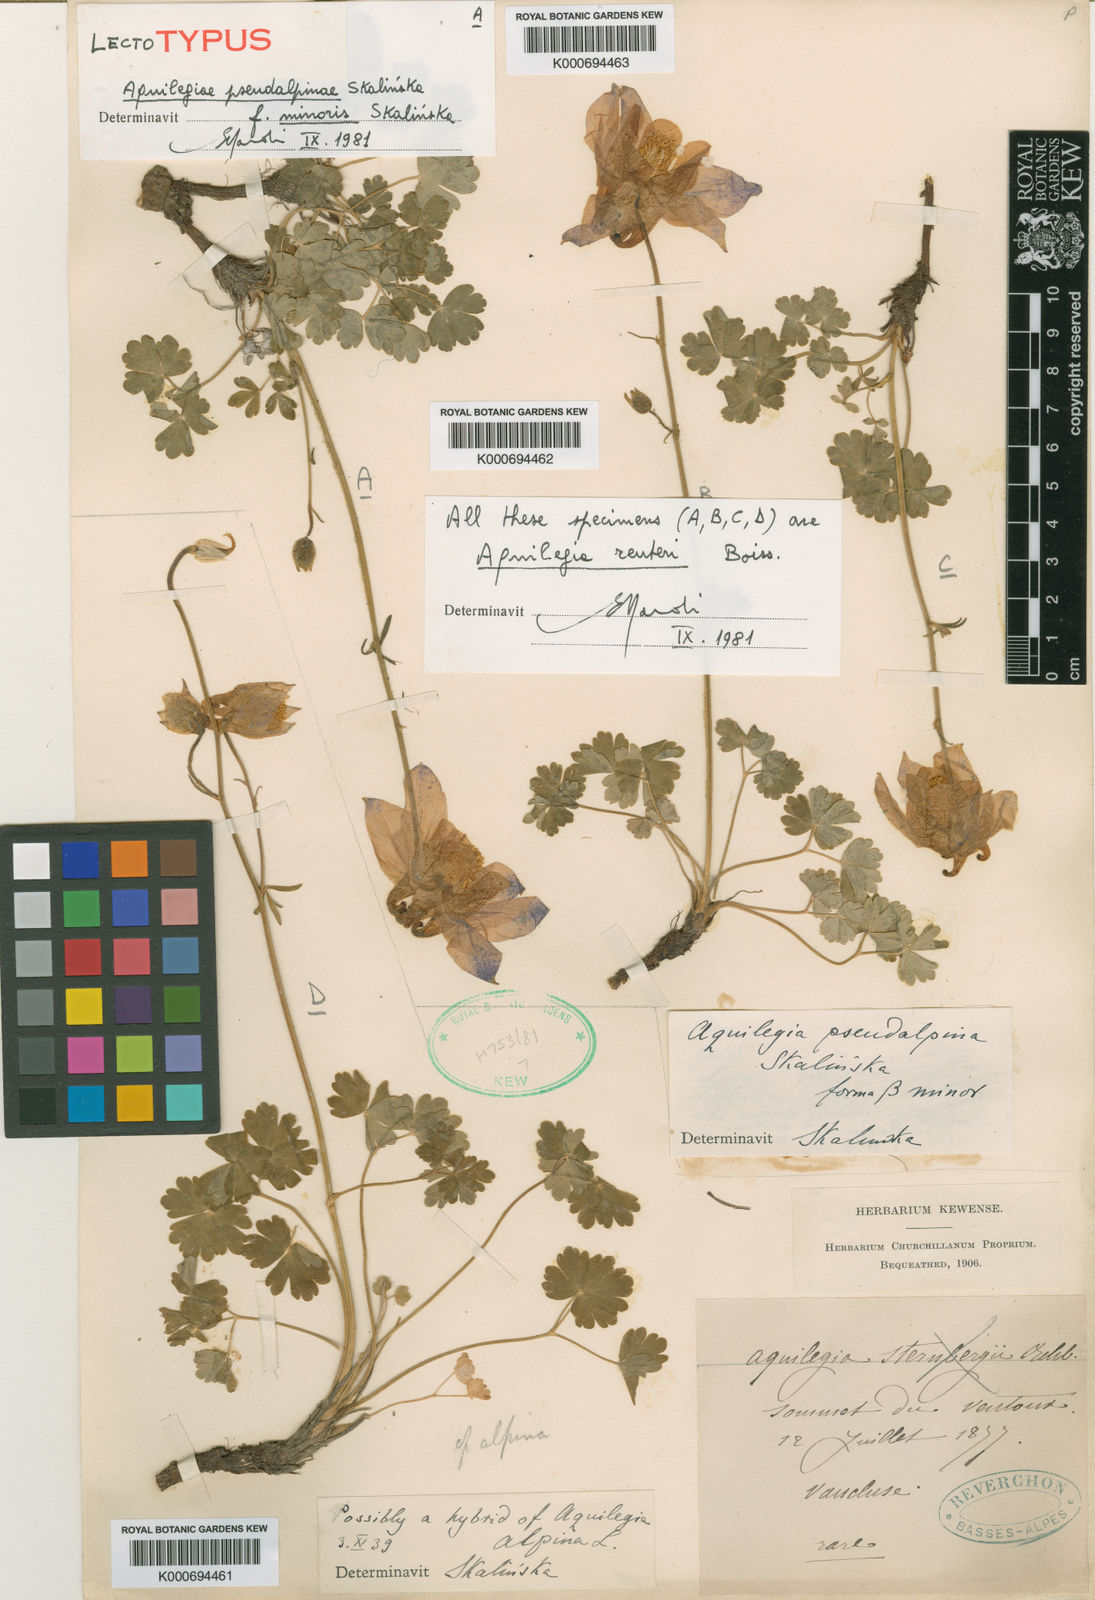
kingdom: Plantae
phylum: Tracheophyta
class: Magnoliopsida
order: Ranunculales
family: Ranunculaceae
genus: Aquilegia
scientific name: Aquilegia bertolonii
